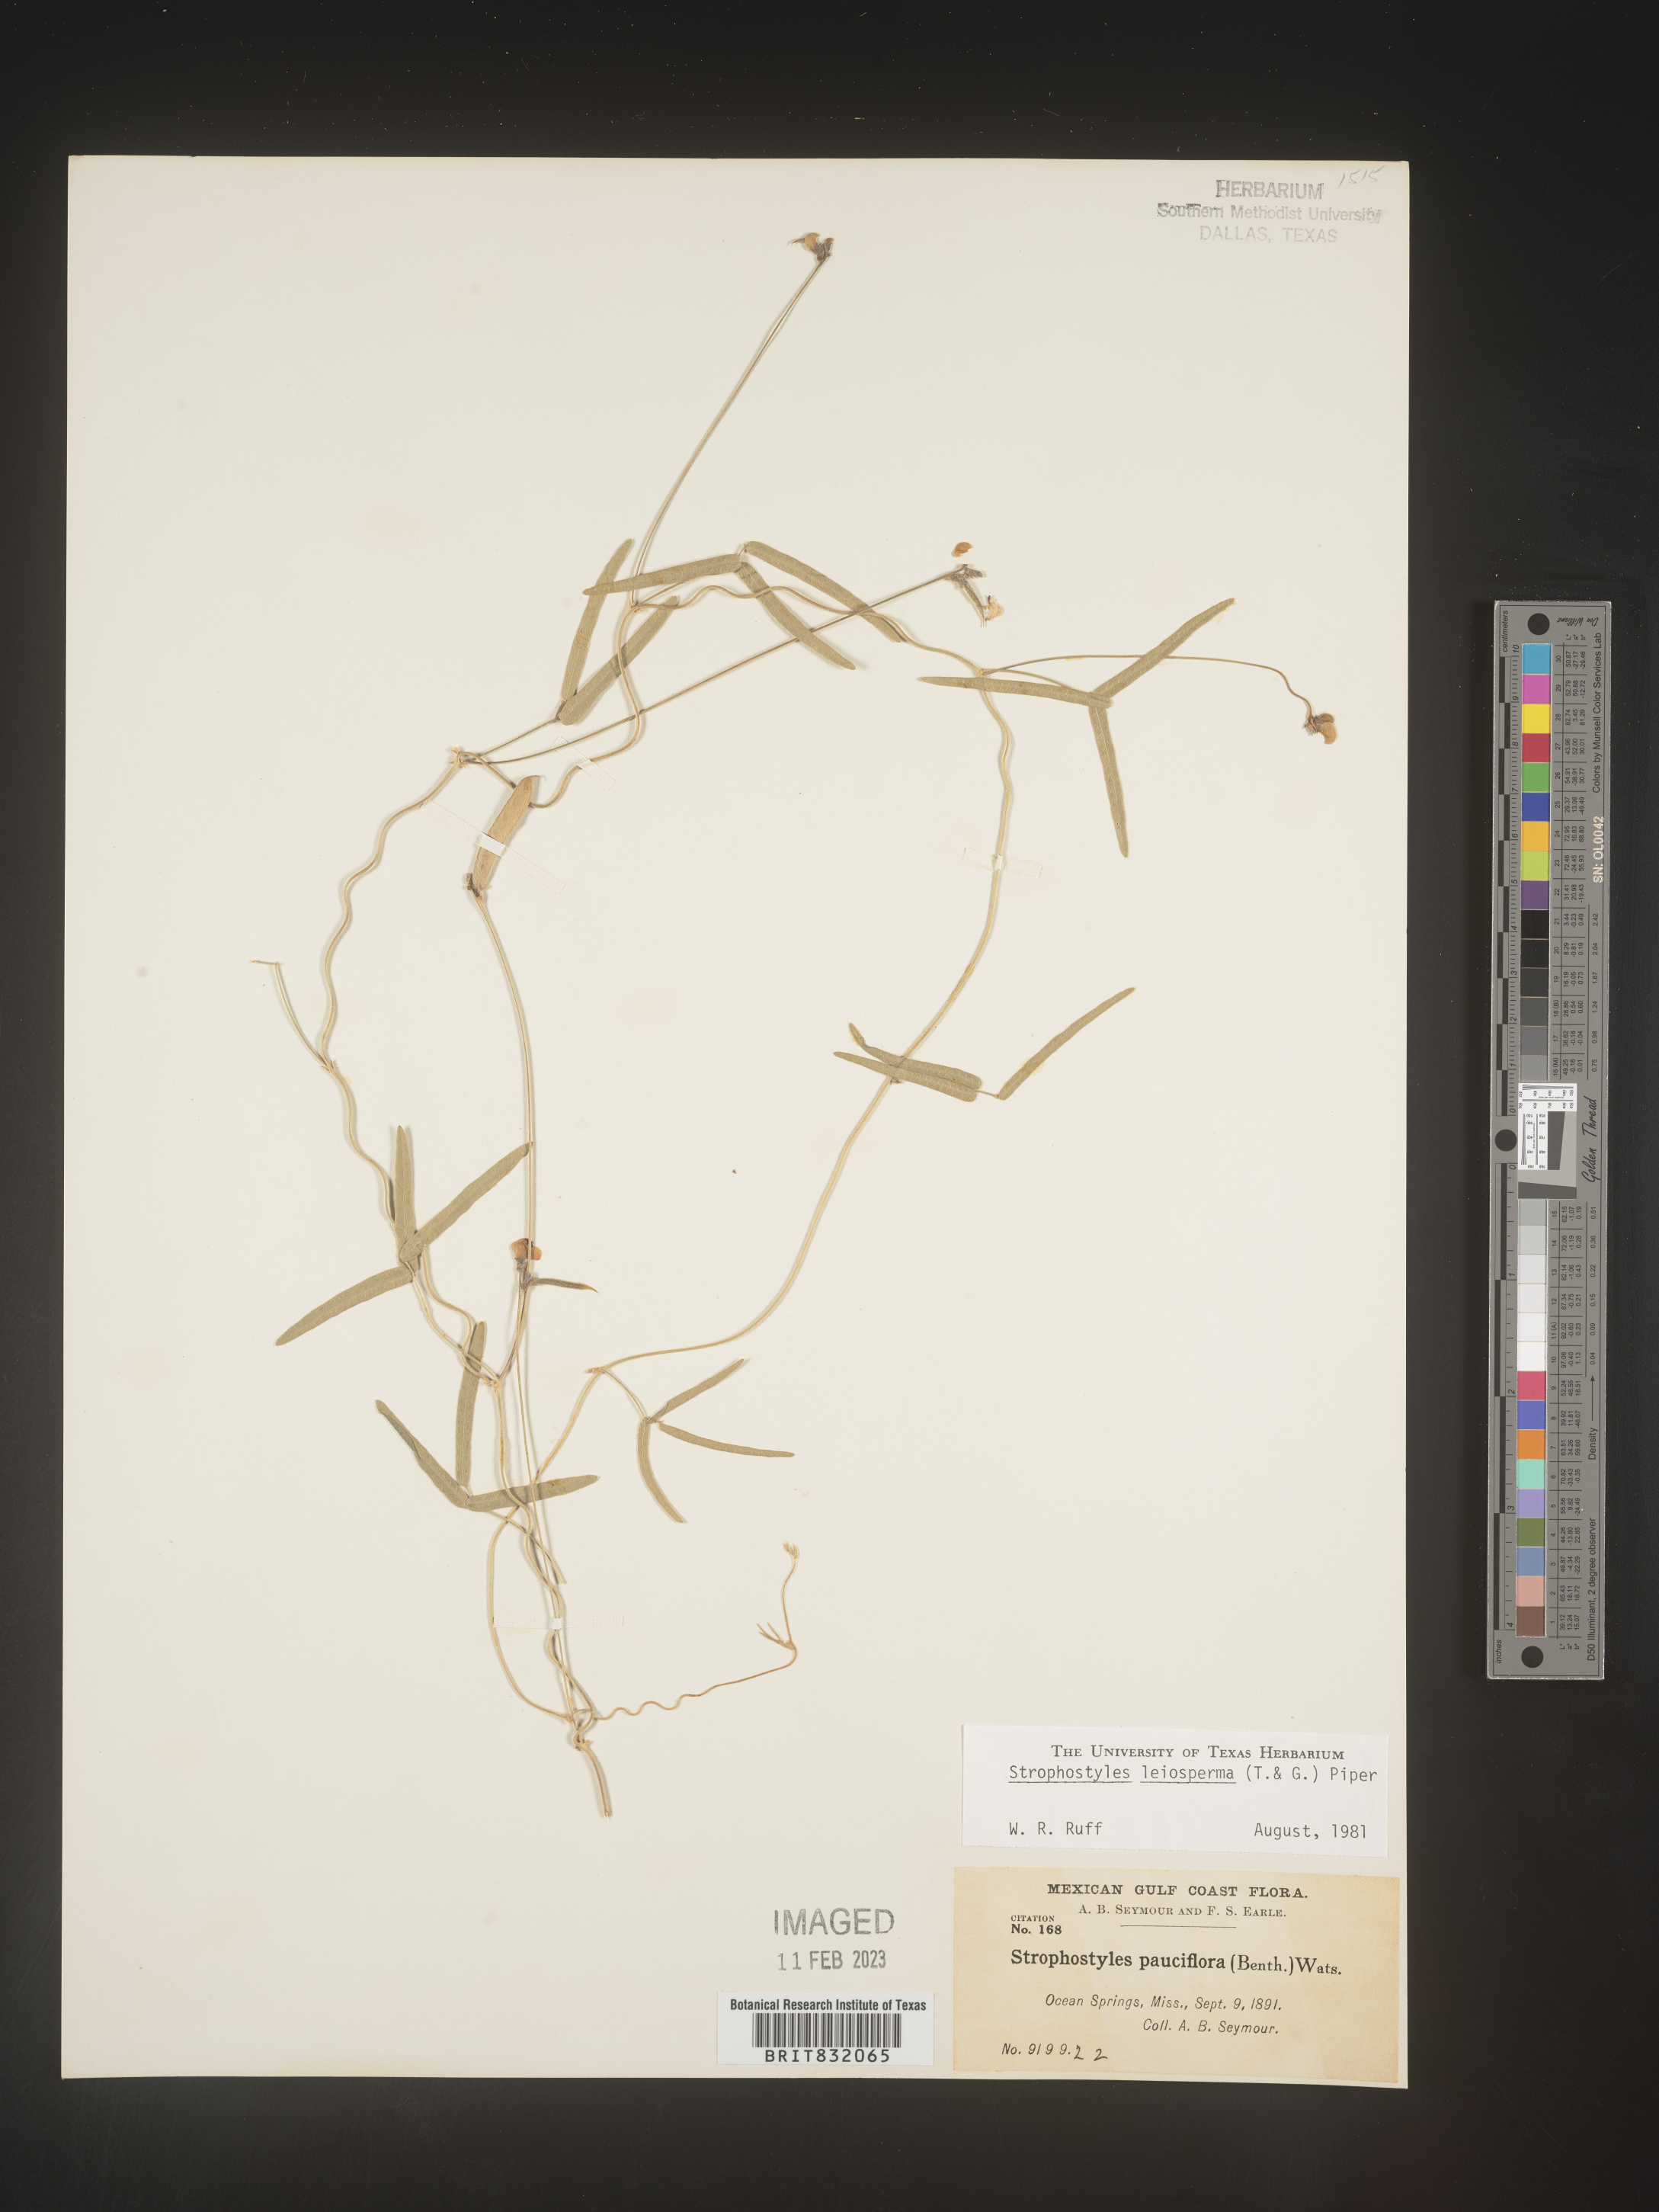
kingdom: Plantae
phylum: Tracheophyta
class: Magnoliopsida
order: Fabales
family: Fabaceae
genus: Strophostyles
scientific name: Strophostyles leiosperma
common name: Smooth-seed wild bean
